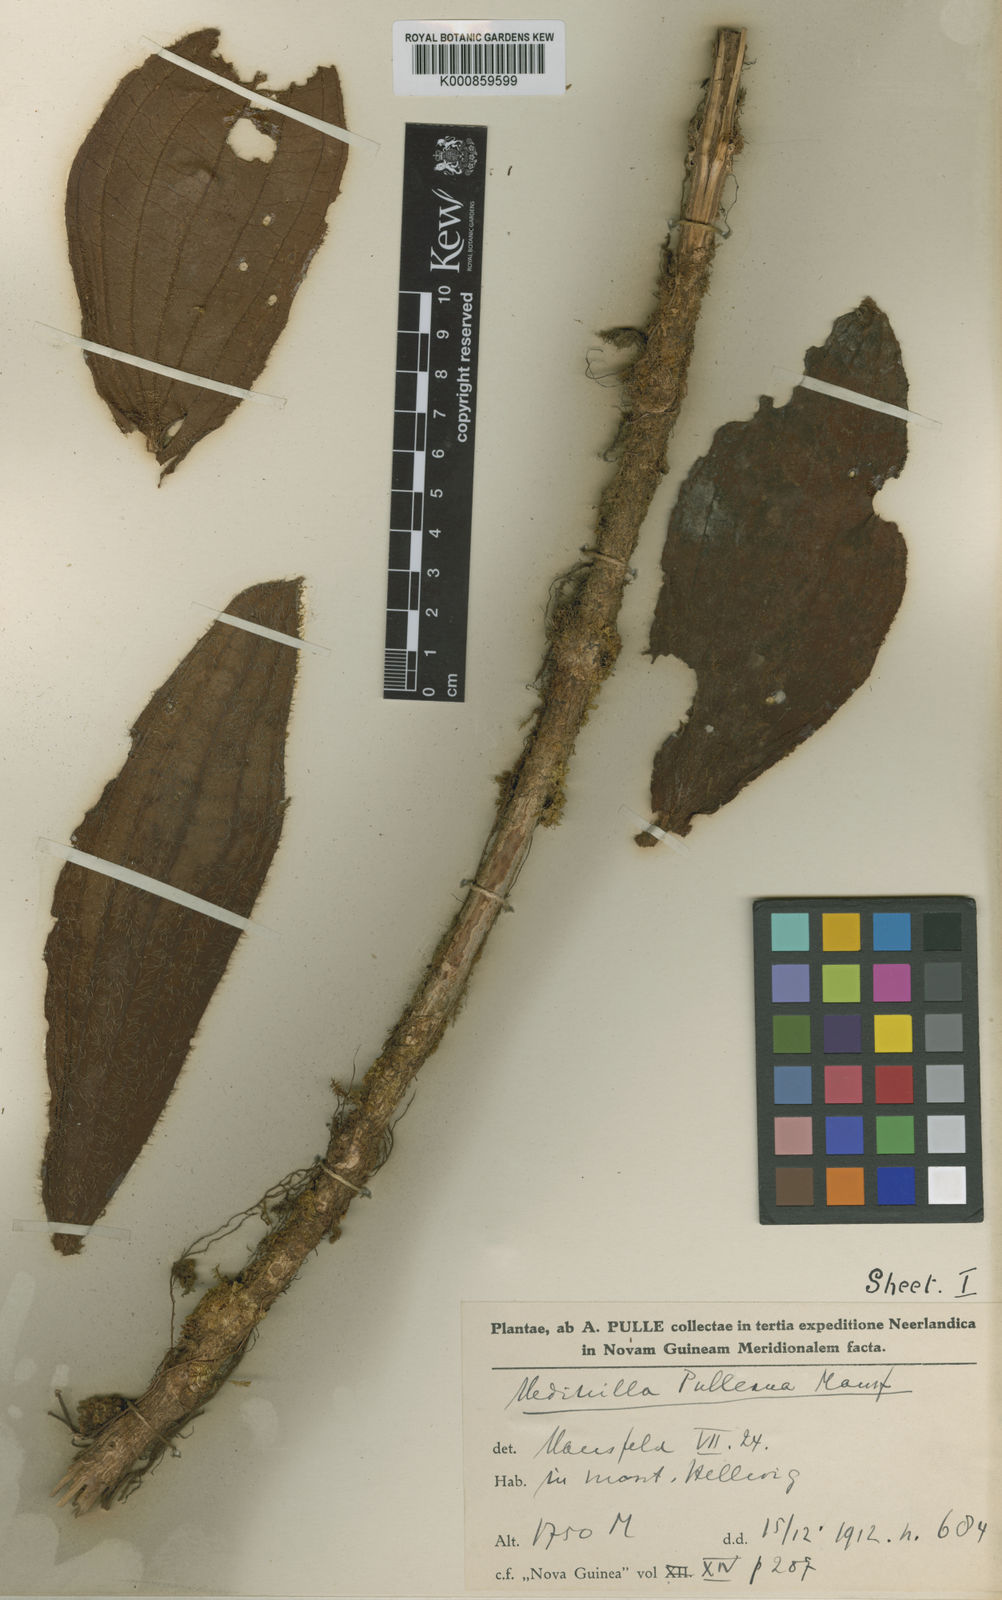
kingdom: Plantae
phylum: Tracheophyta
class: Magnoliopsida
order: Myrtales
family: Melastomataceae
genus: Medinilla
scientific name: Medinilla pulleana
